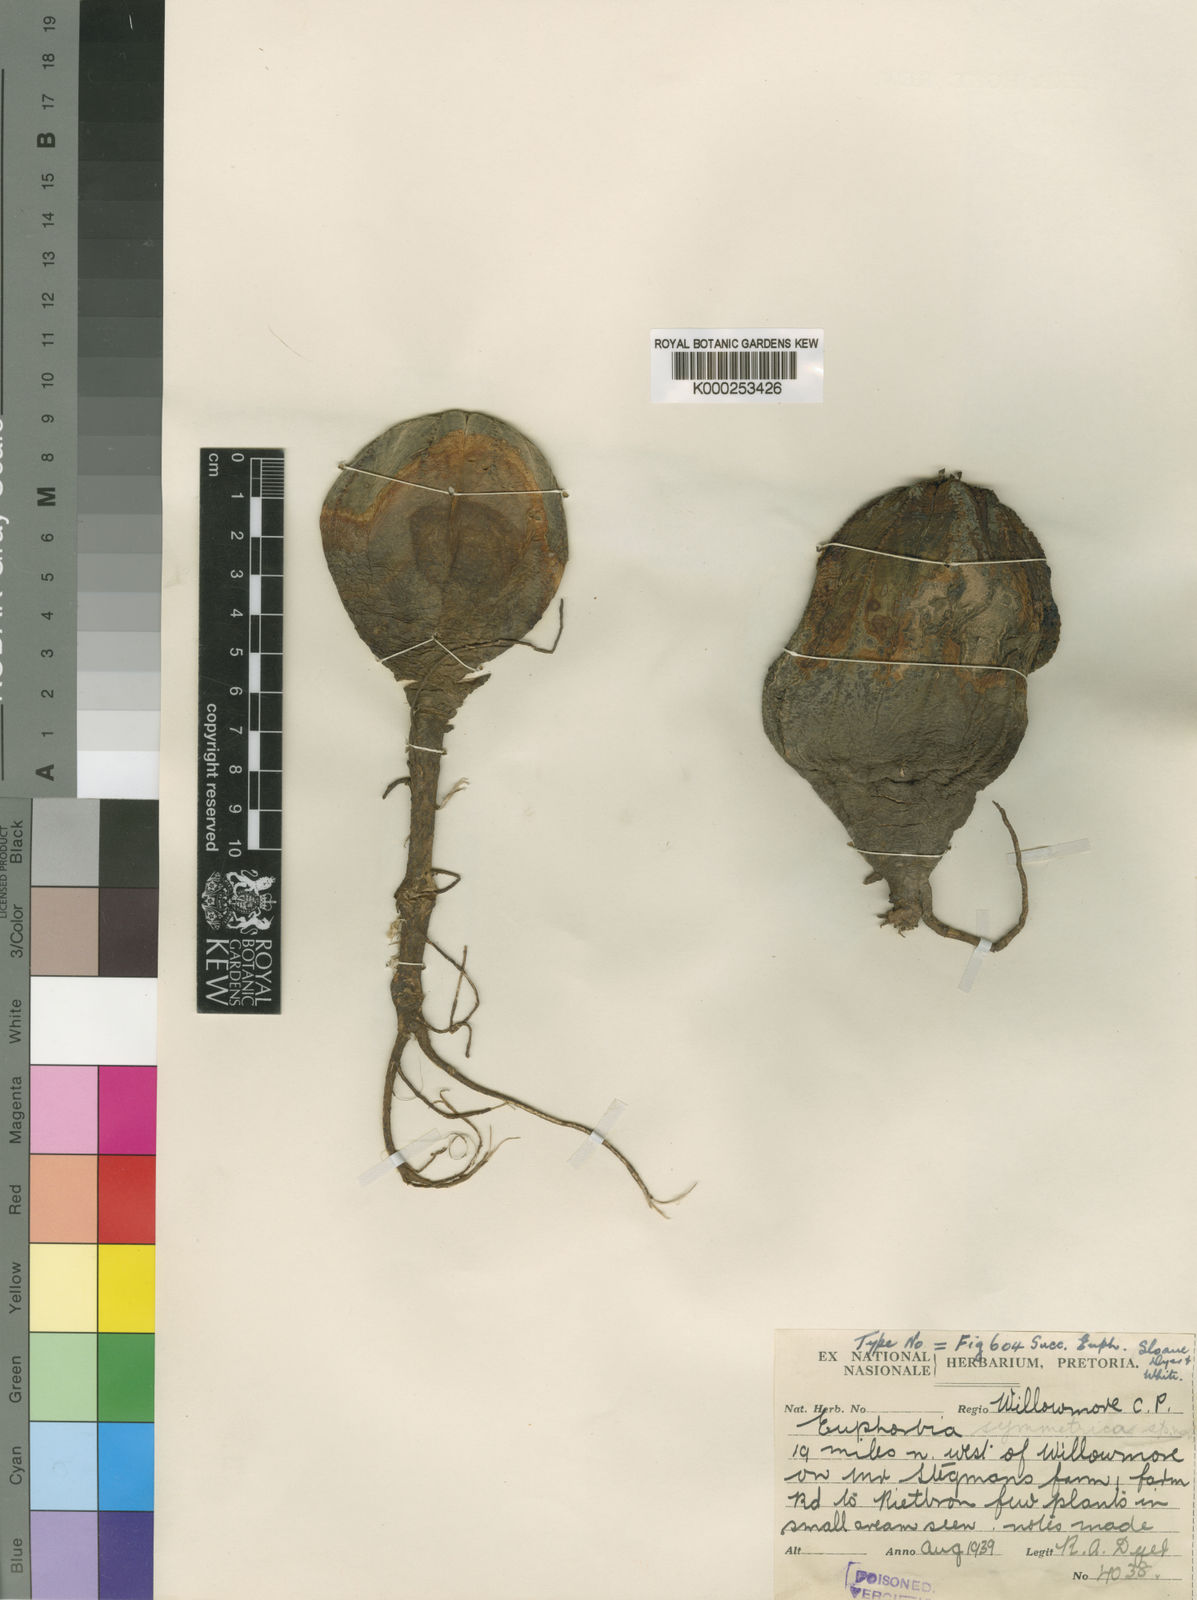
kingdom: Plantae
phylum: Tracheophyta
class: Magnoliopsida
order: Malpighiales
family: Euphorbiaceae
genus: Euphorbia
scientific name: Euphorbia
